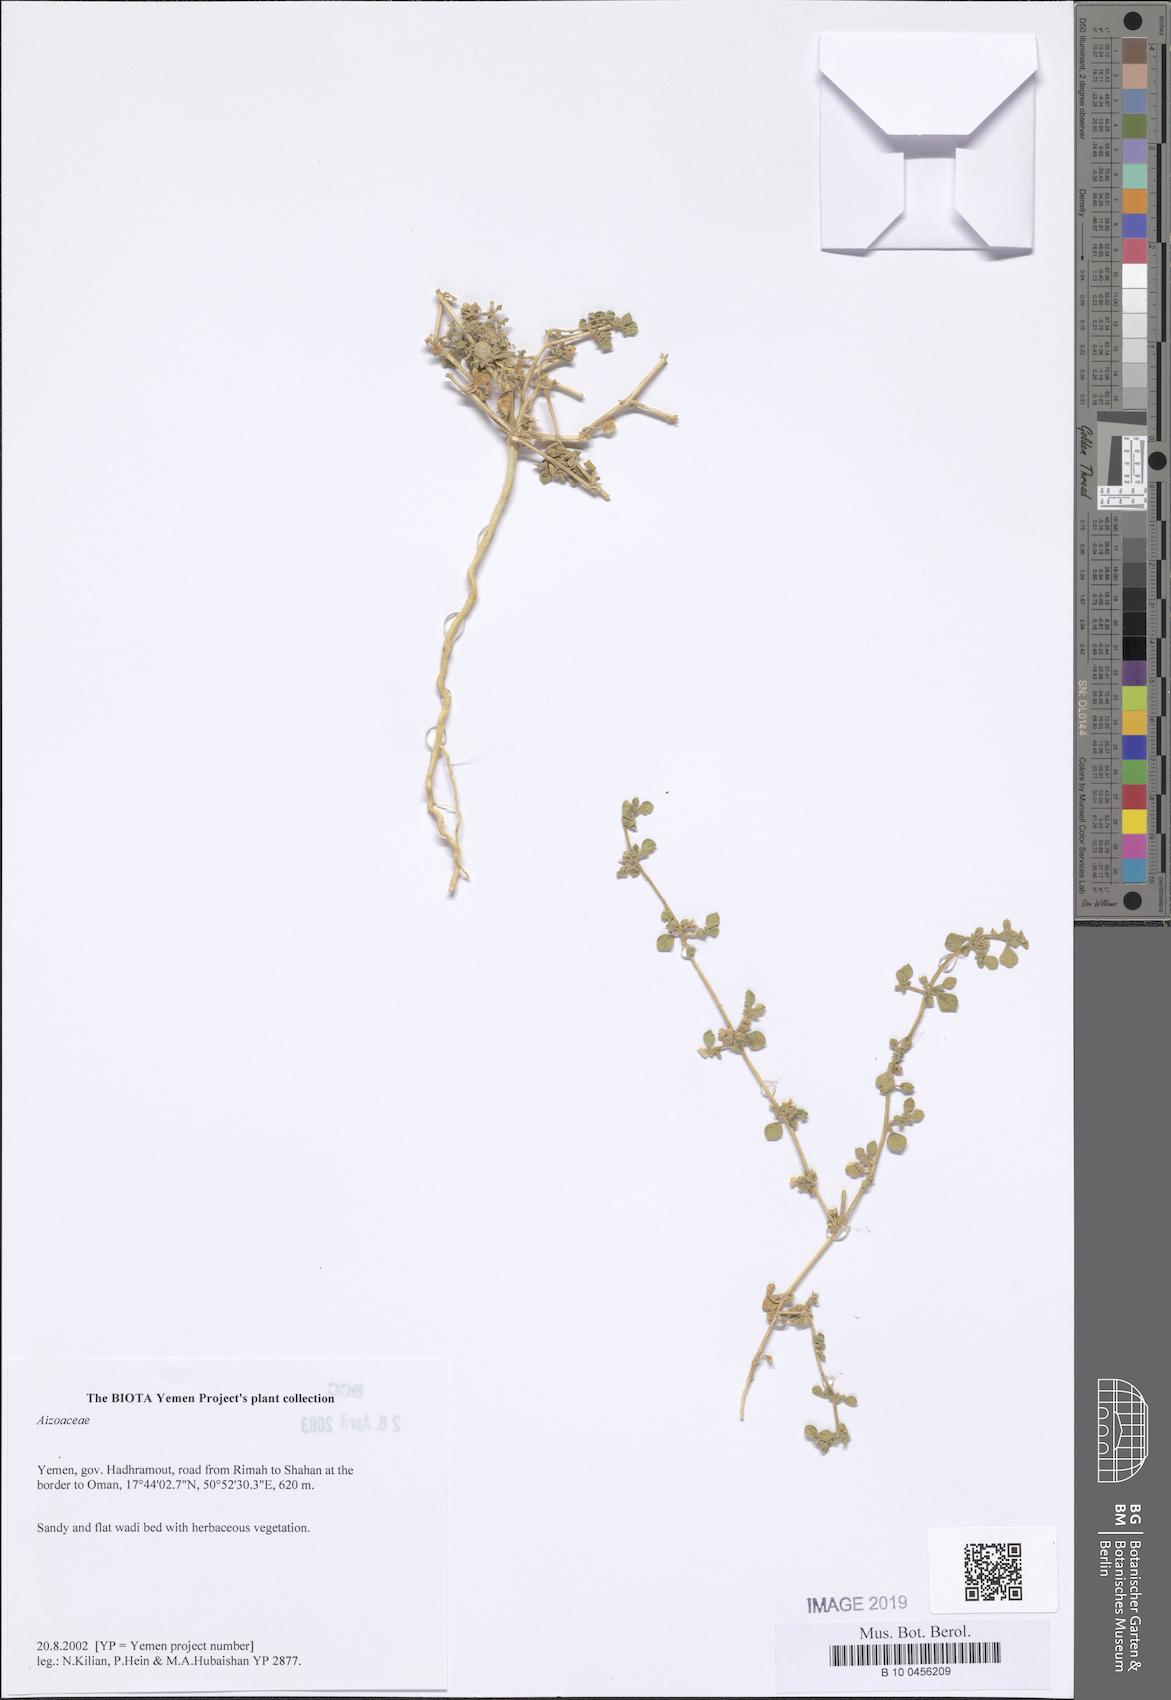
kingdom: Plantae
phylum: Tracheophyta
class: Magnoliopsida
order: Caryophyllales
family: Aizoaceae
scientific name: Aizoaceae
